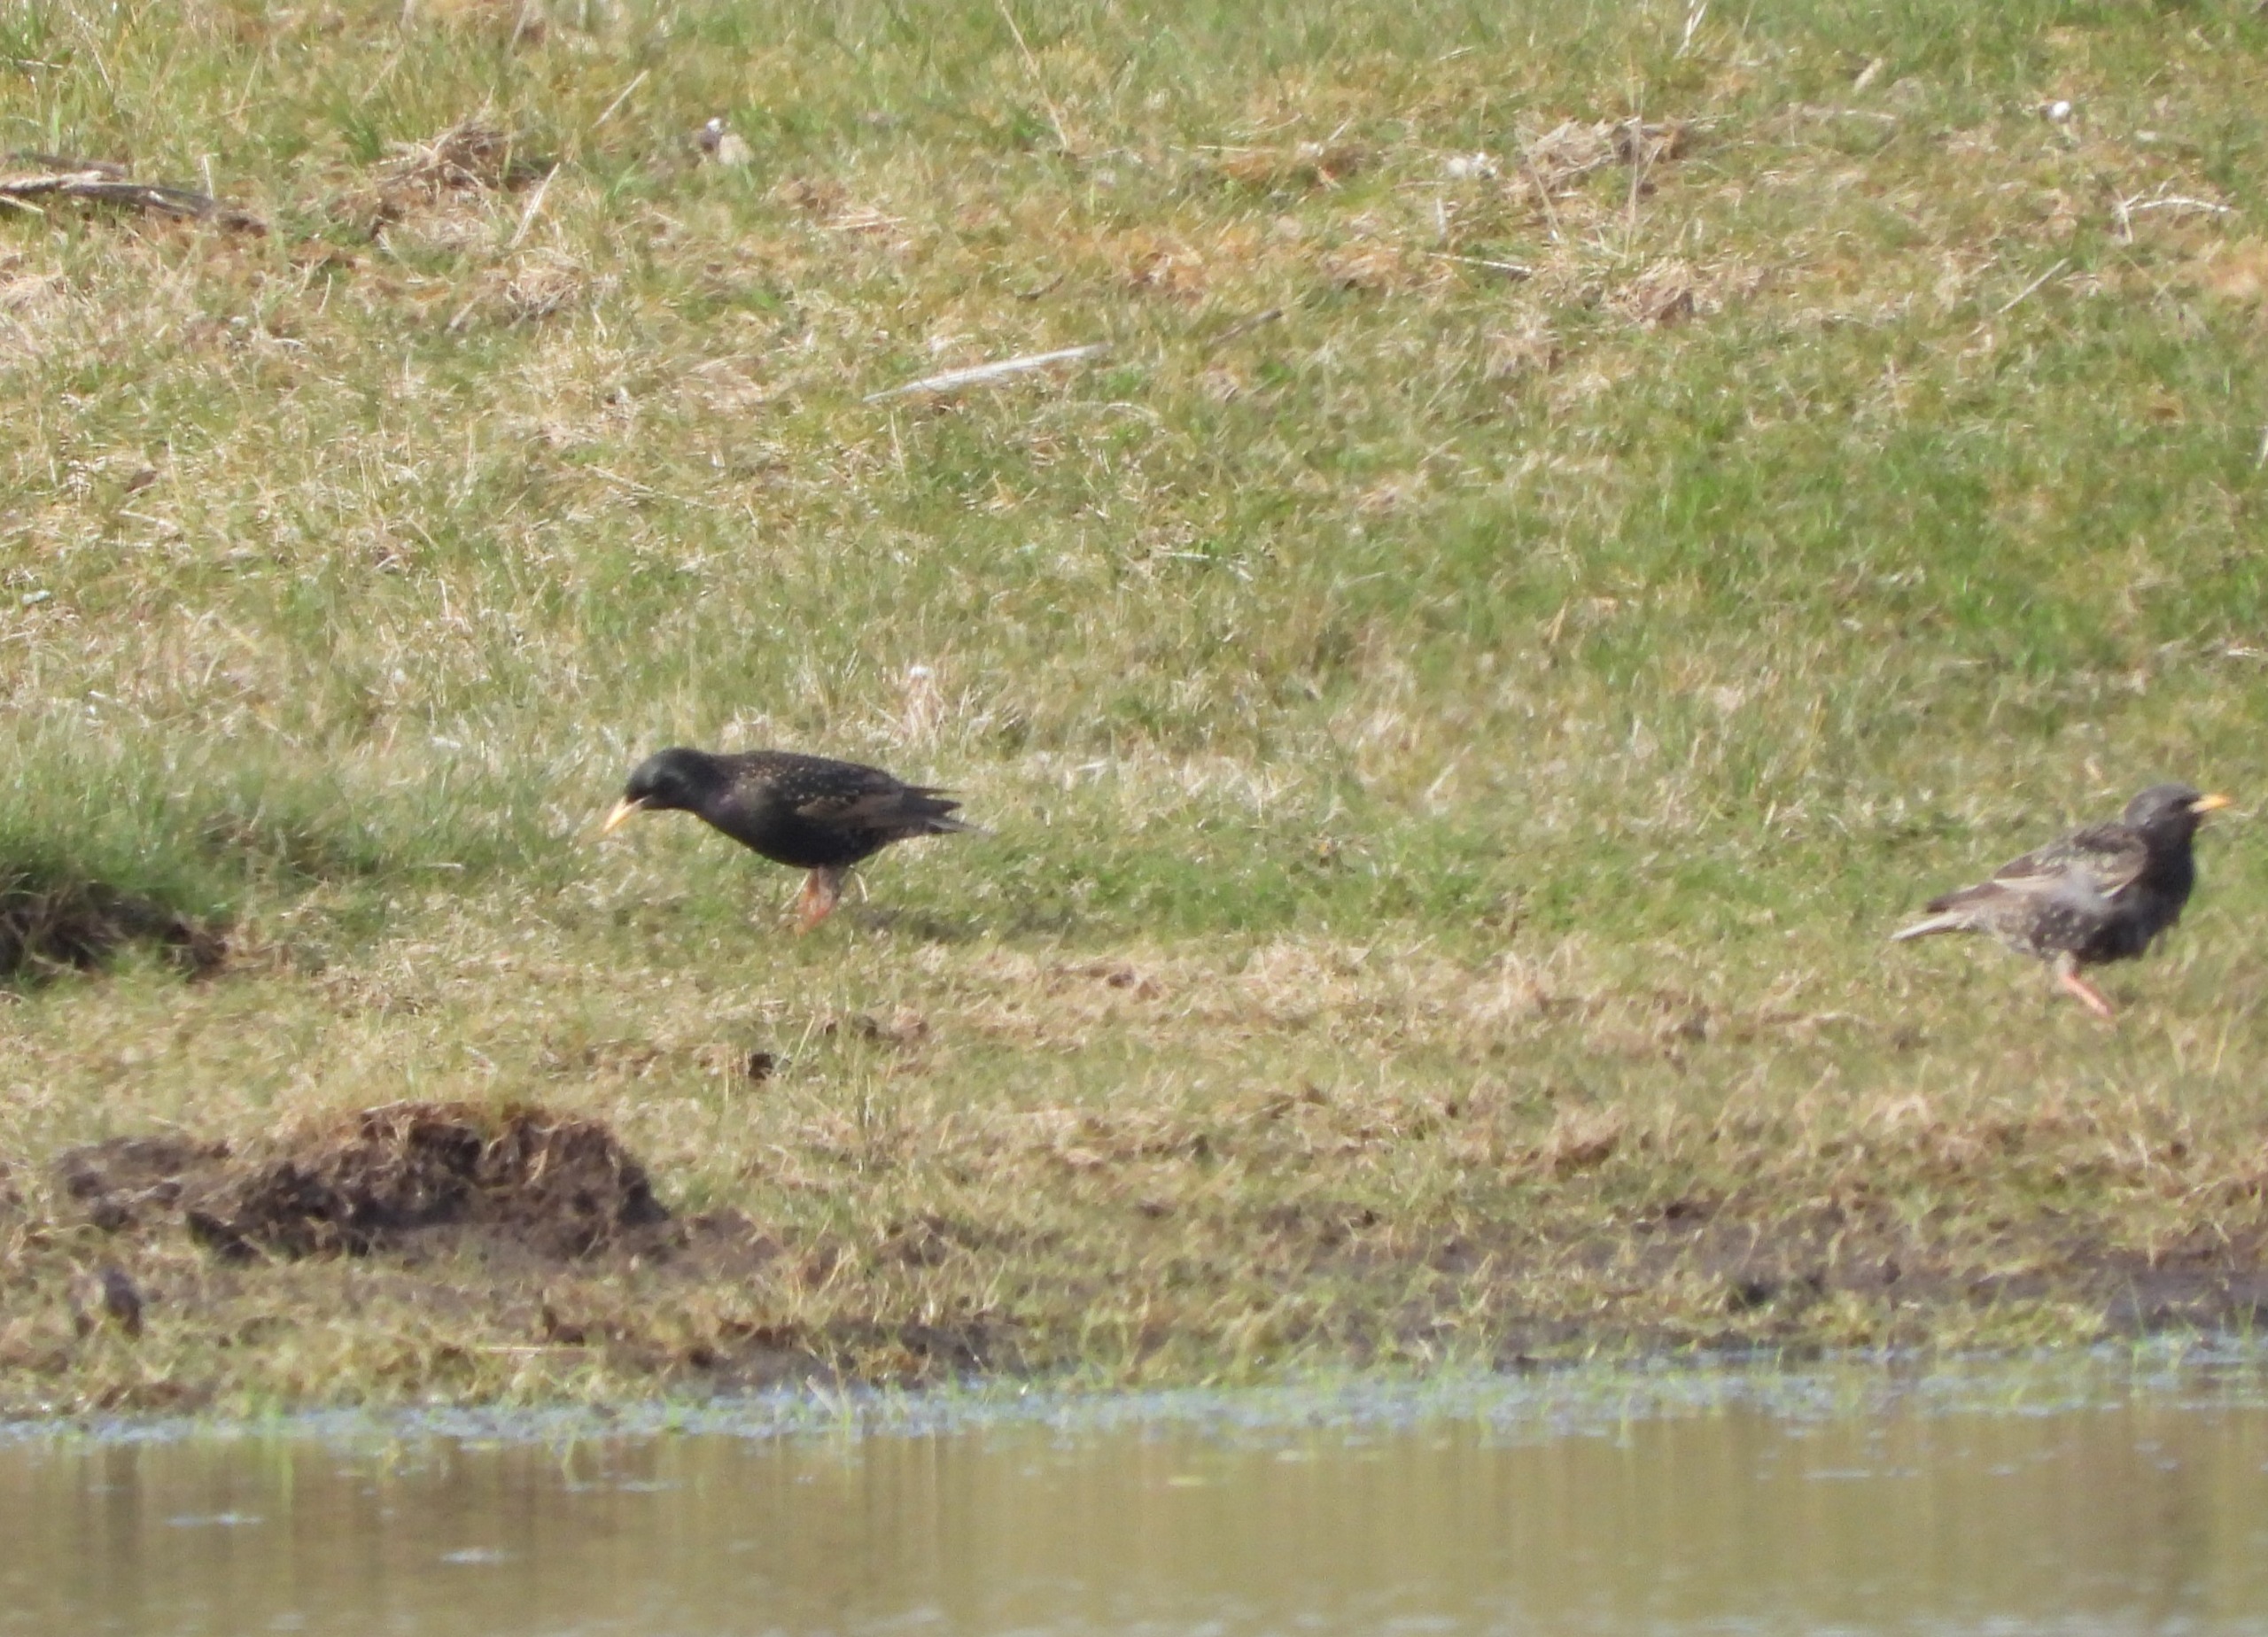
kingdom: Animalia
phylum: Chordata
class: Aves
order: Passeriformes
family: Sturnidae
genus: Sturnus
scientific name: Sturnus vulgaris
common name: Stær
